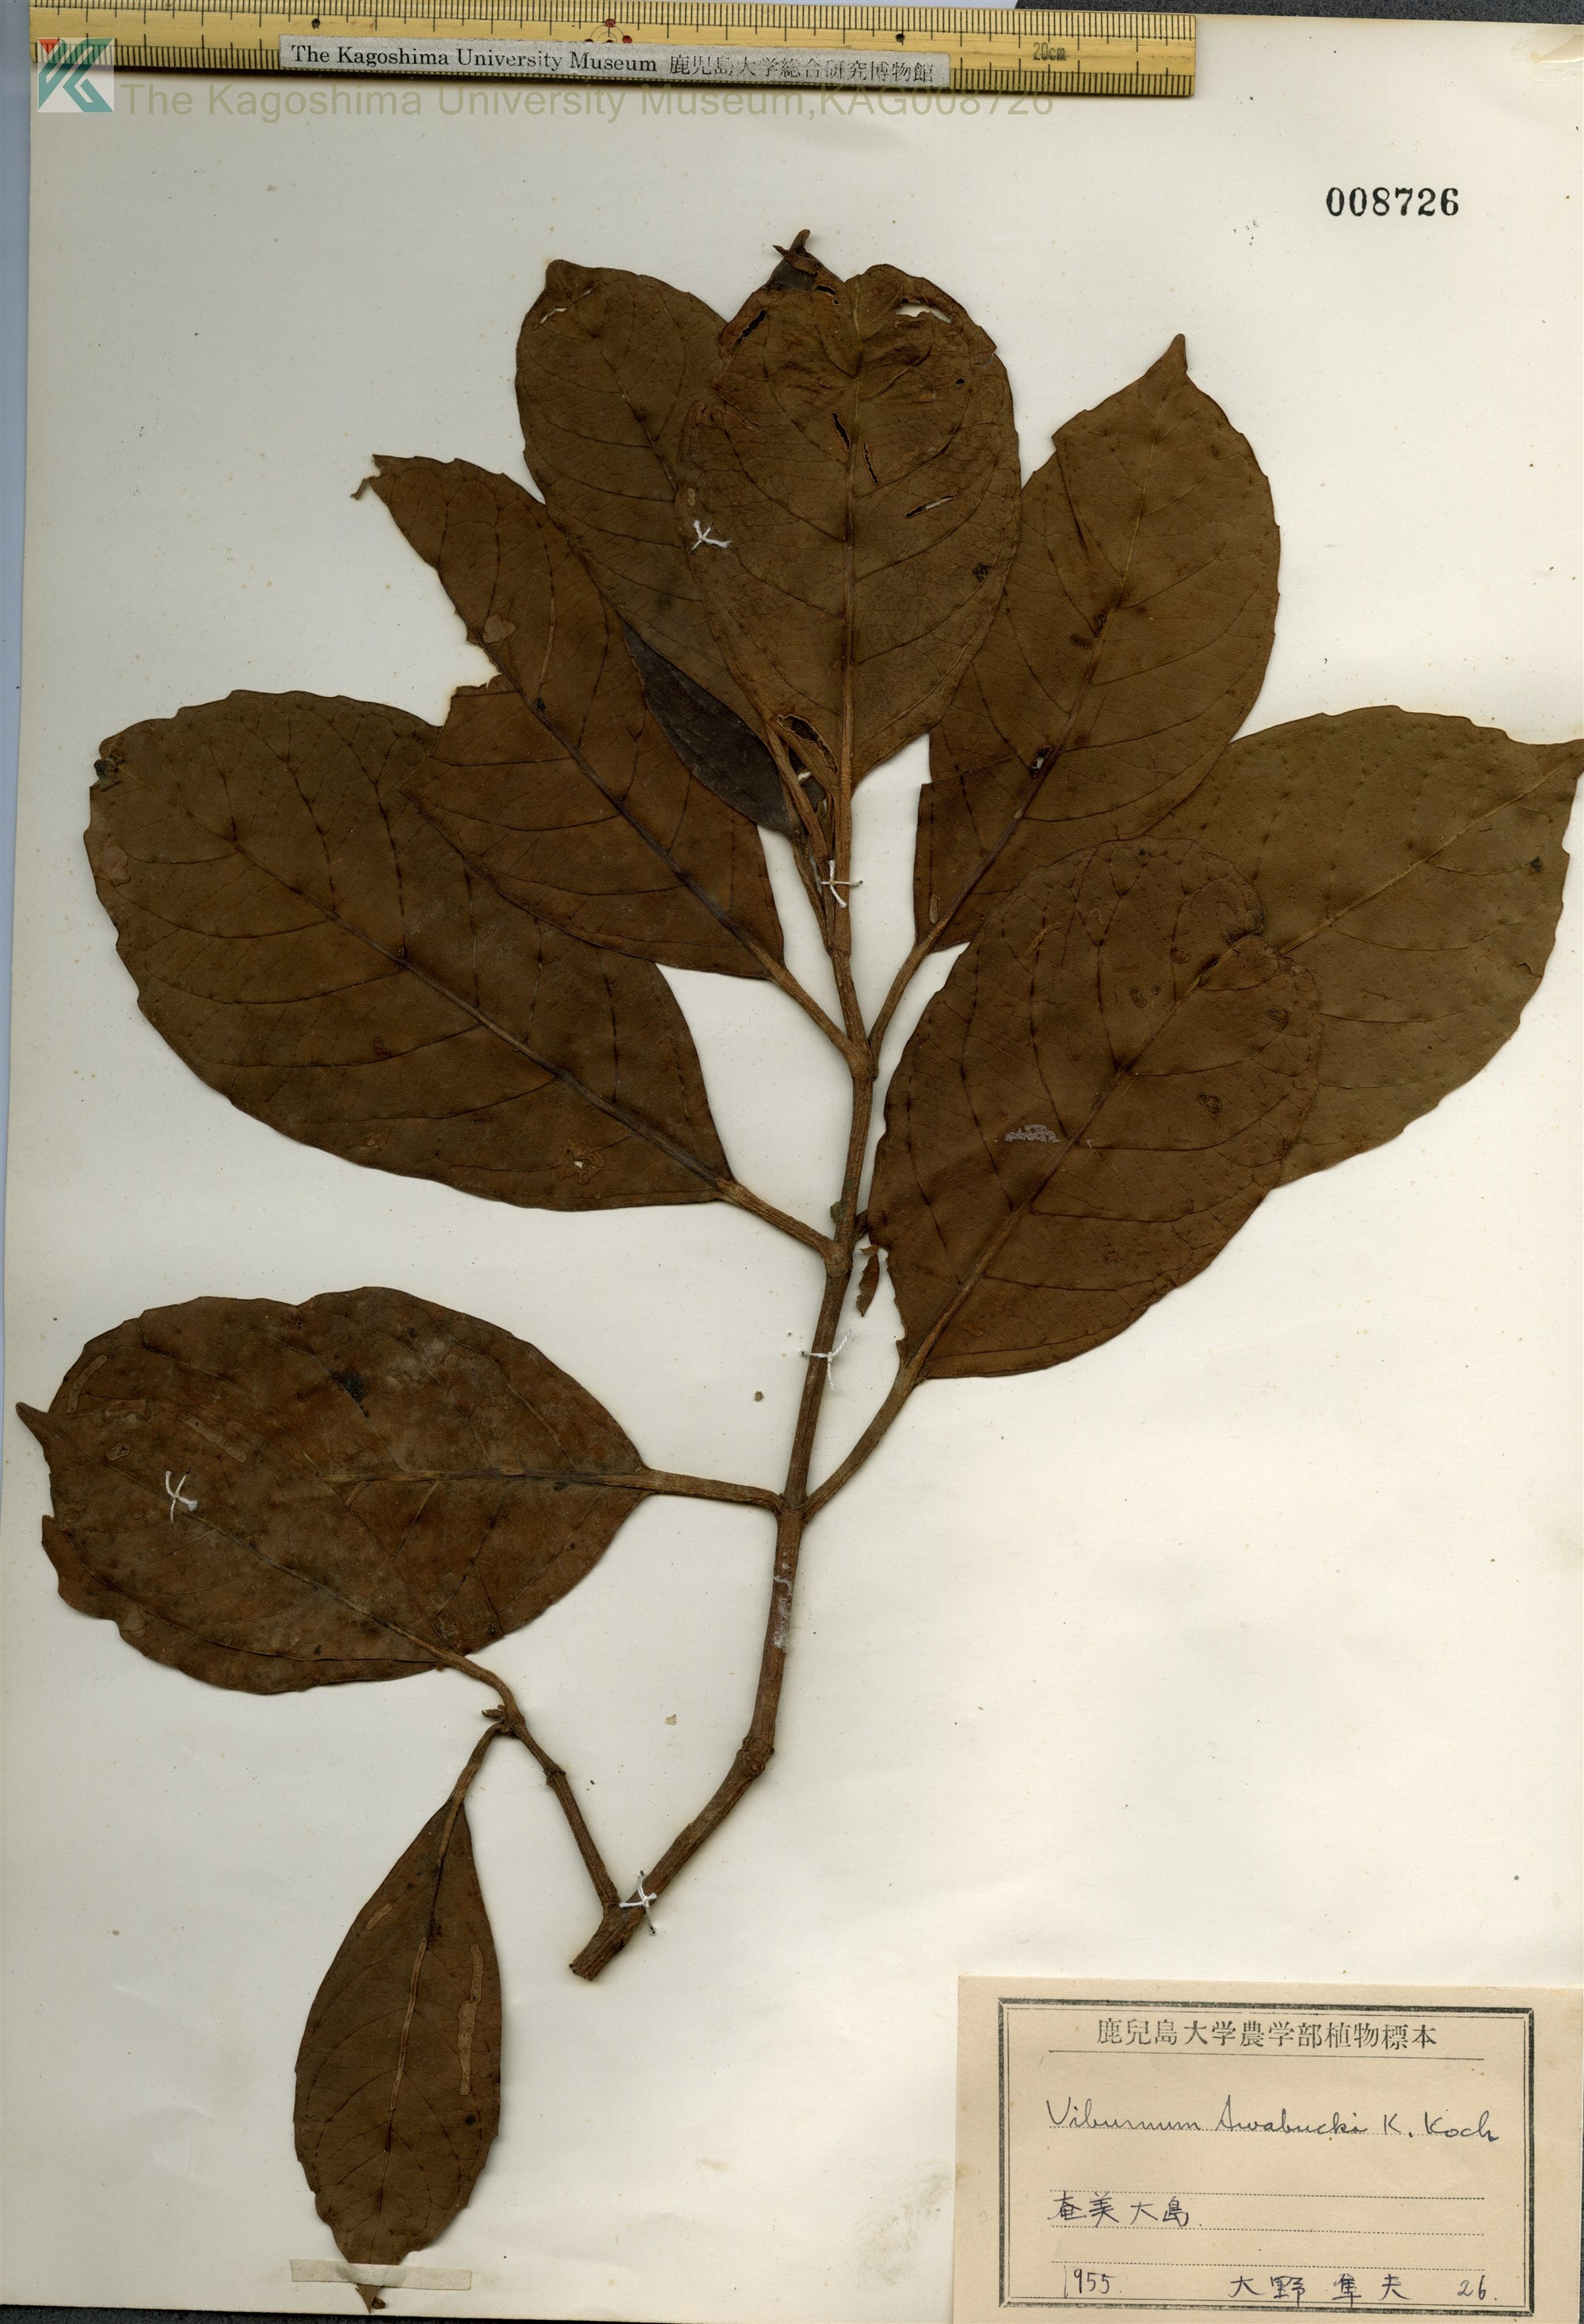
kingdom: Plantae
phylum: Tracheophyta
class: Magnoliopsida
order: Dipsacales
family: Viburnaceae
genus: Viburnum
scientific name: Viburnum odoratissimum
